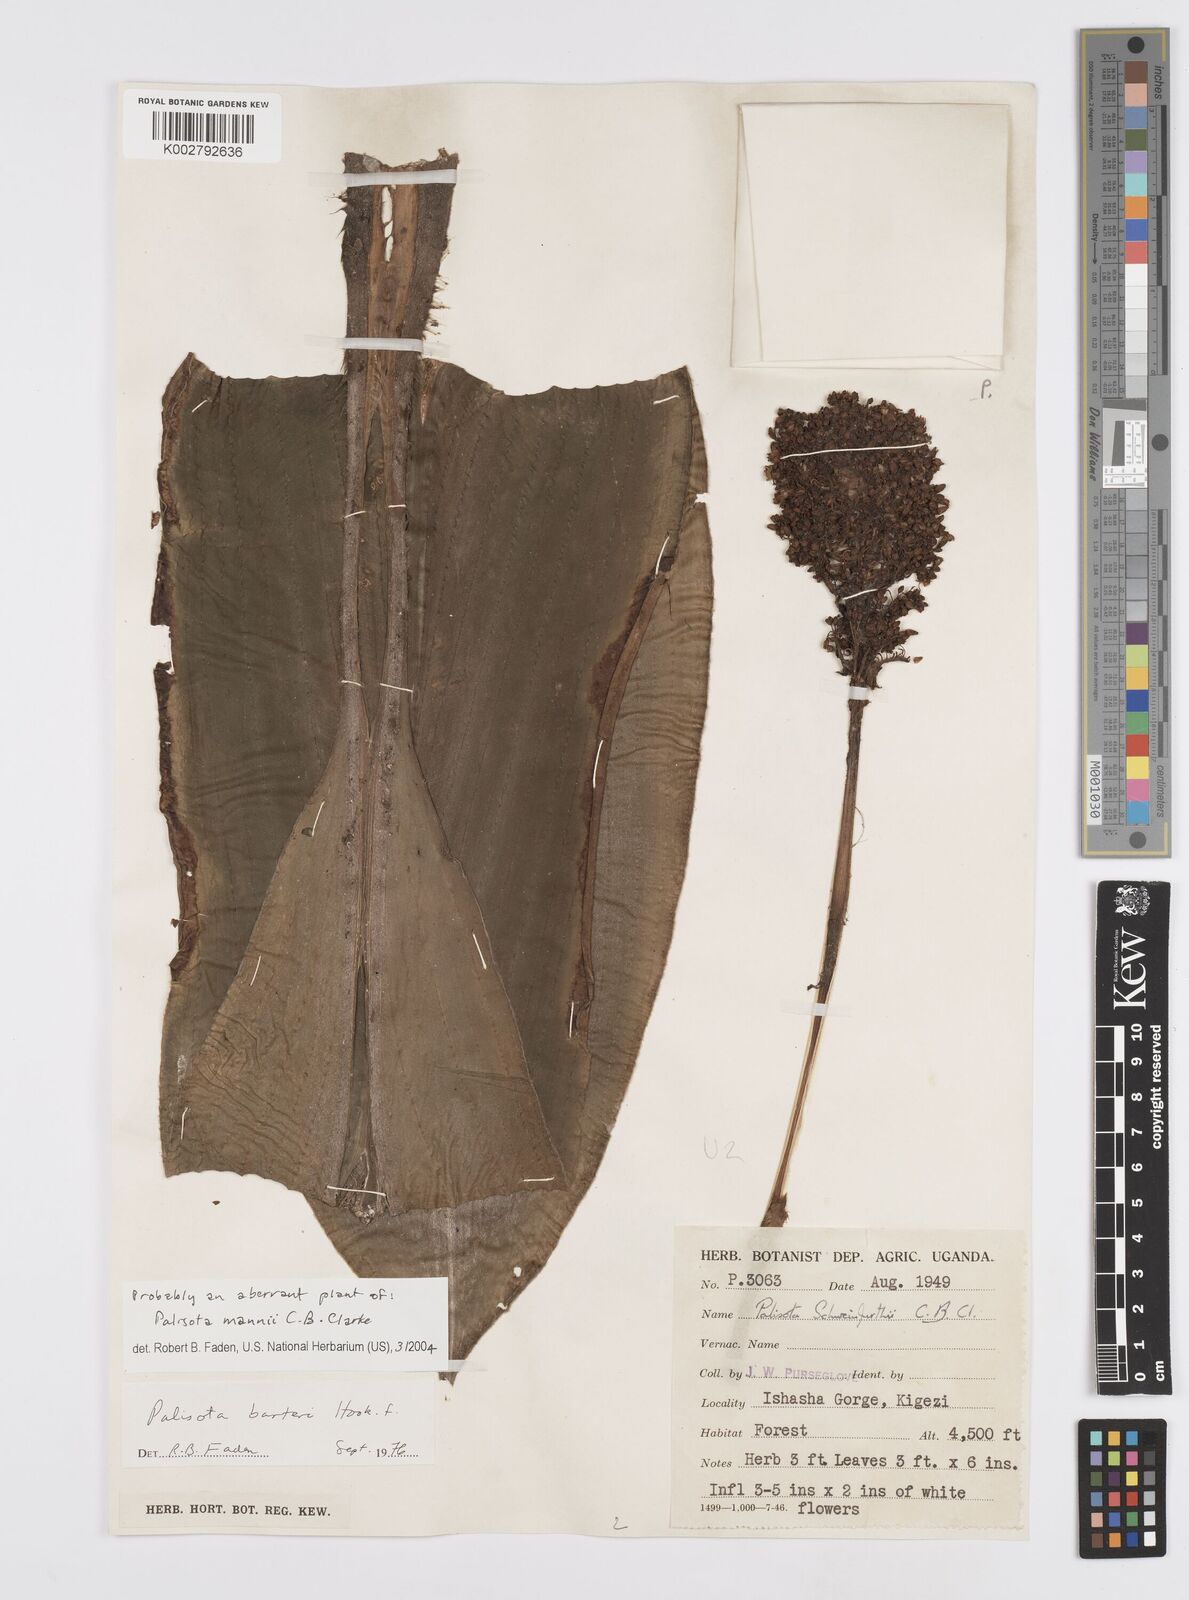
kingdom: Plantae
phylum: Tracheophyta
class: Liliopsida
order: Commelinales
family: Commelinaceae
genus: Palisota
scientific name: Palisota mannii
